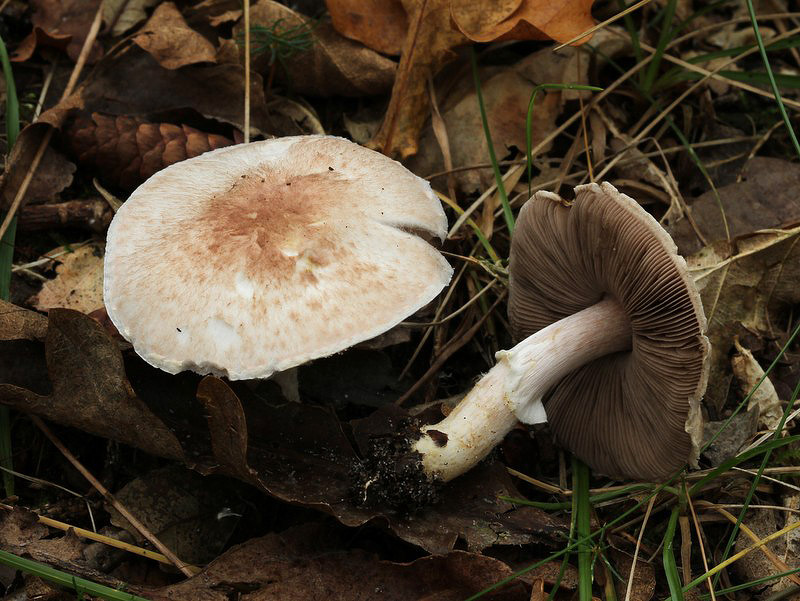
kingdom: Fungi
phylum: Basidiomycota
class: Agaricomycetes
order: Agaricales
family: Agaricaceae
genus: Agaricus
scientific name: Agaricus dulcidulus
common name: blegrød champignon
